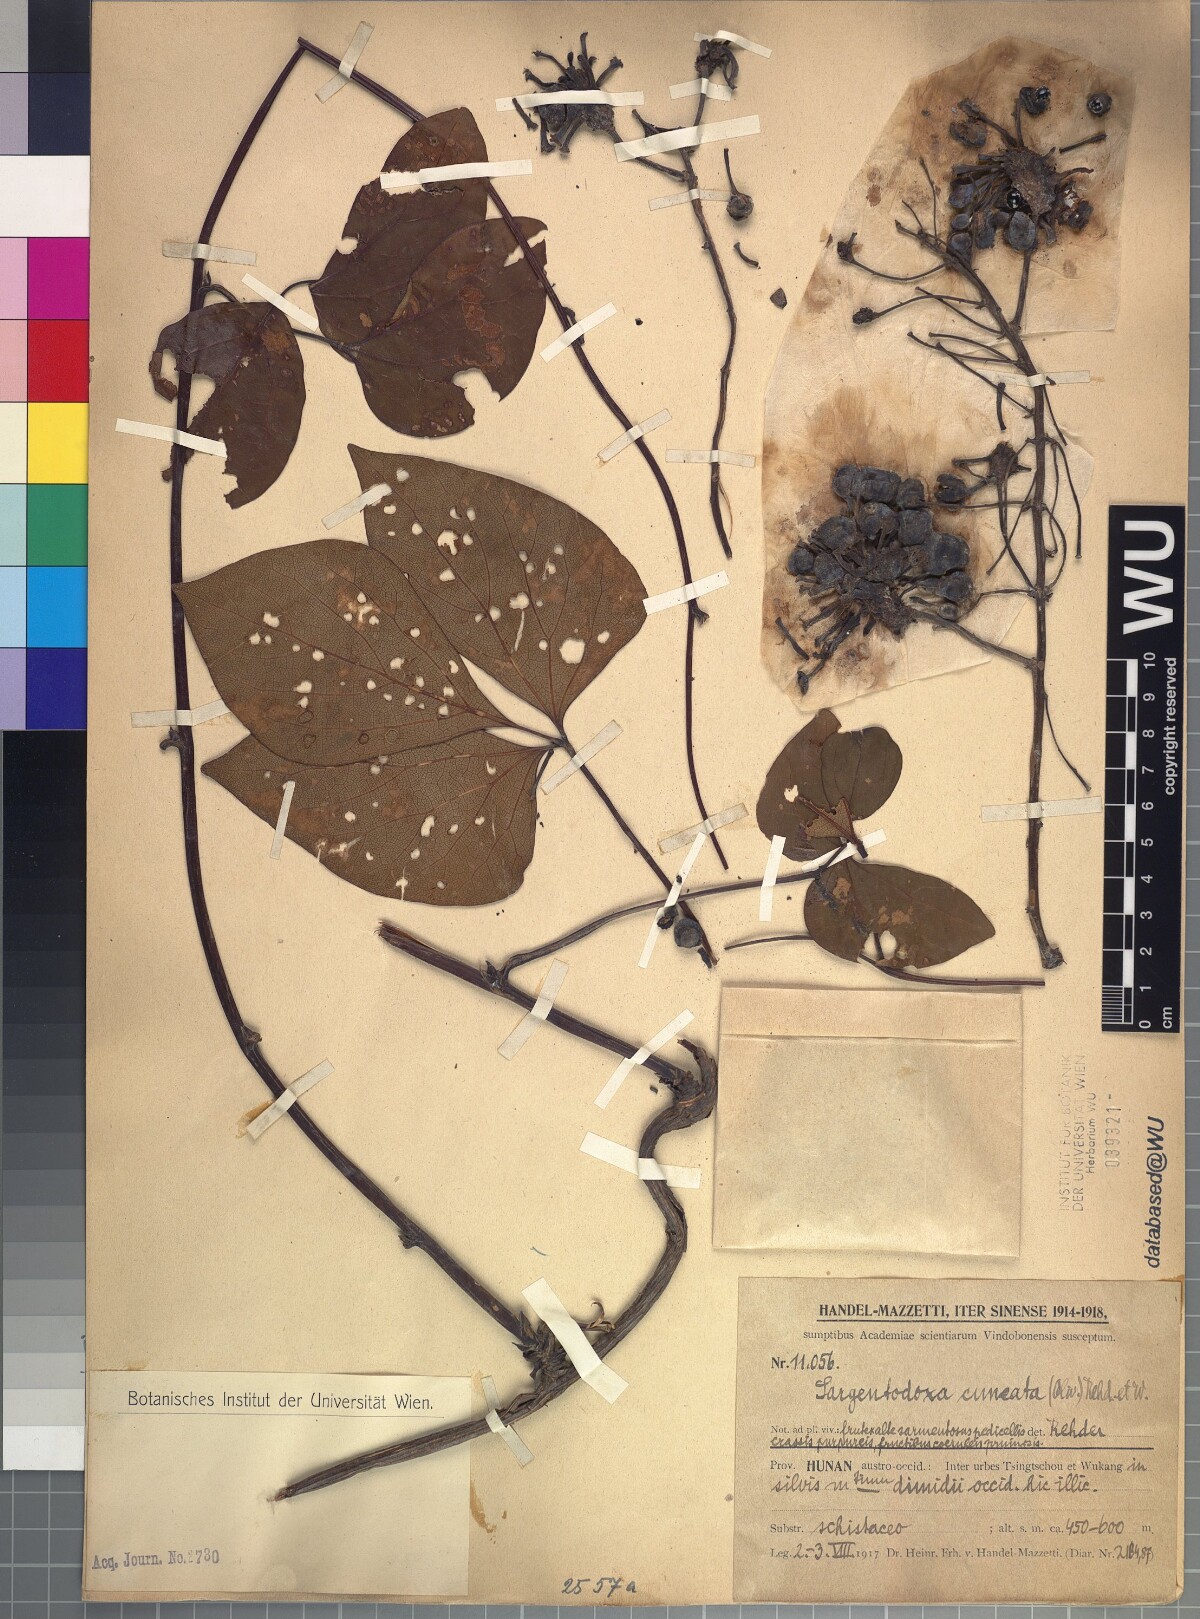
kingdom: Plantae
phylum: Tracheophyta
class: Magnoliopsida
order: Ranunculales
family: Lardizabalaceae
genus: Sargentodoxa
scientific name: Sargentodoxa cuneata
